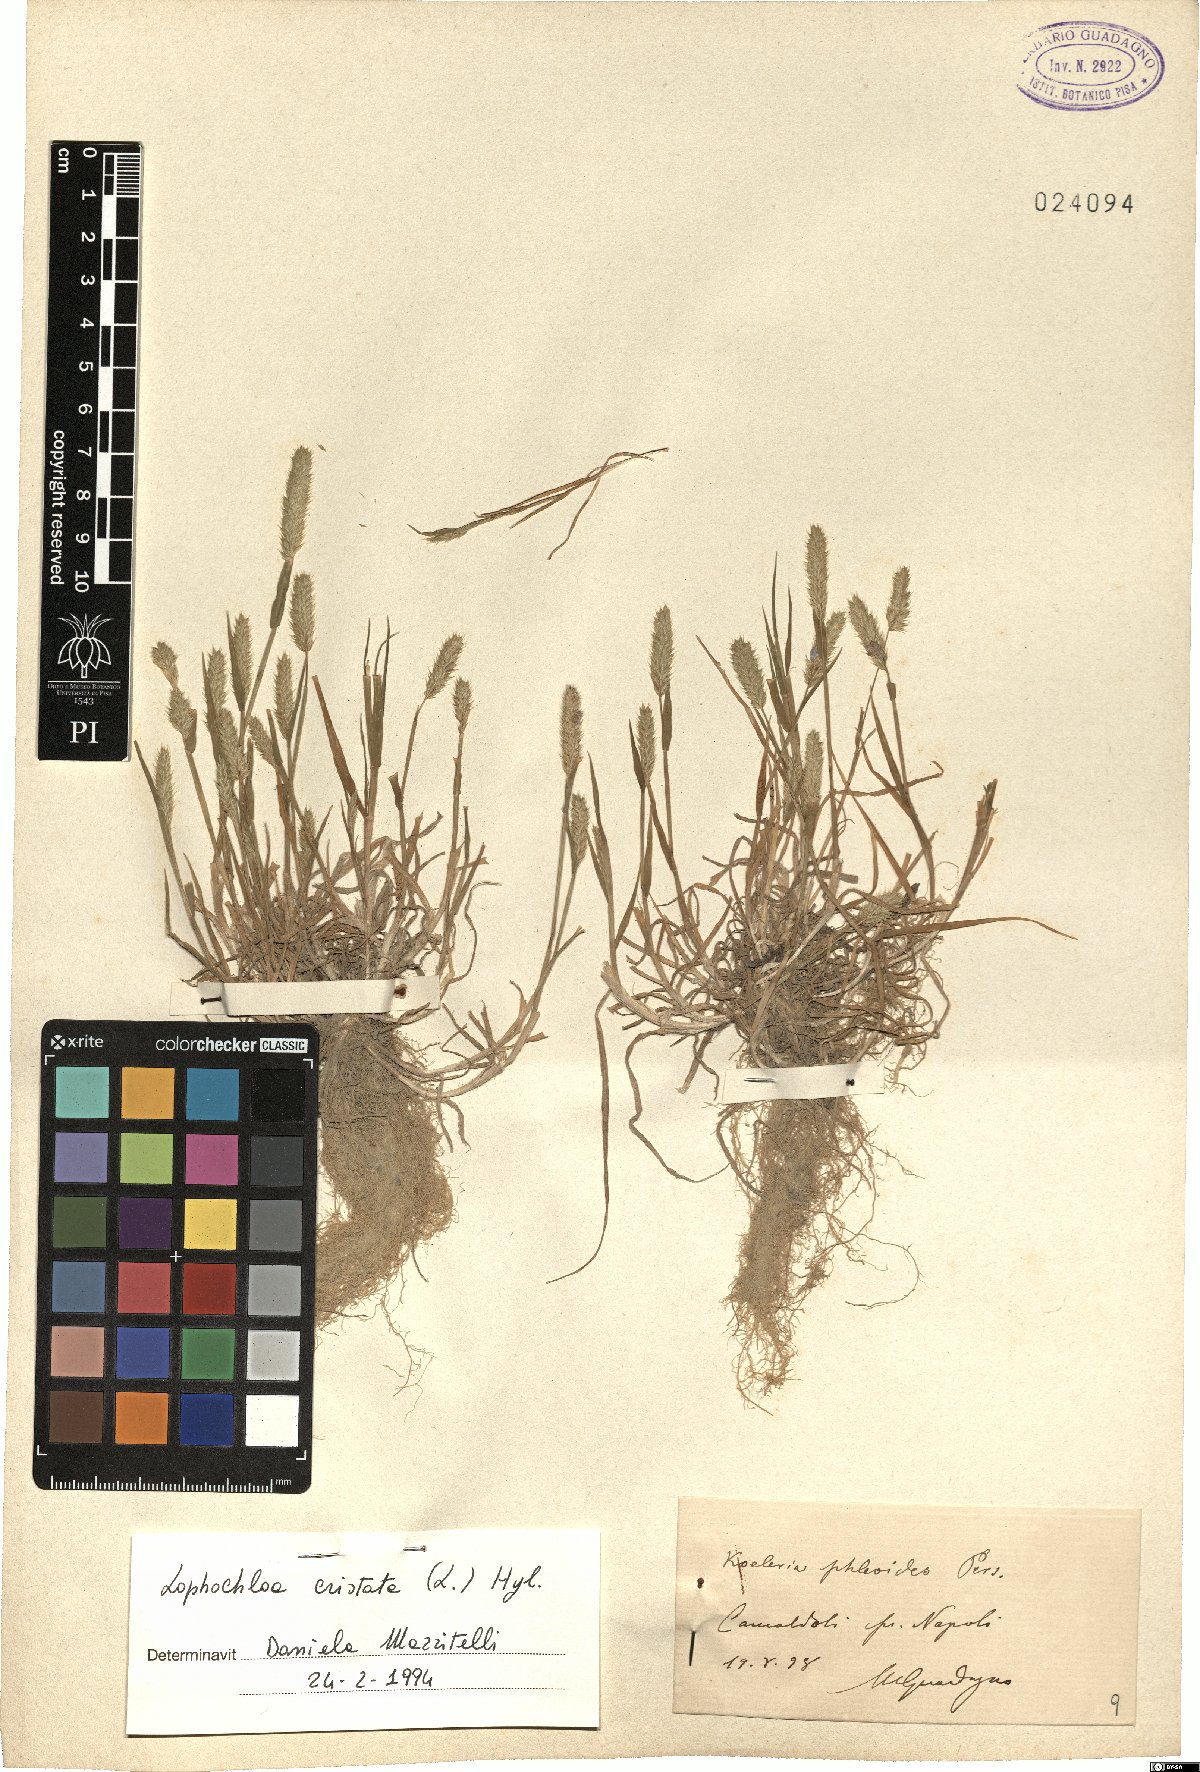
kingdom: Plantae
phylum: Tracheophyta
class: Liliopsida
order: Poales
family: Poaceae
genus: Rostraria
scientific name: Rostraria cristata
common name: Mediterranean hair-grass
